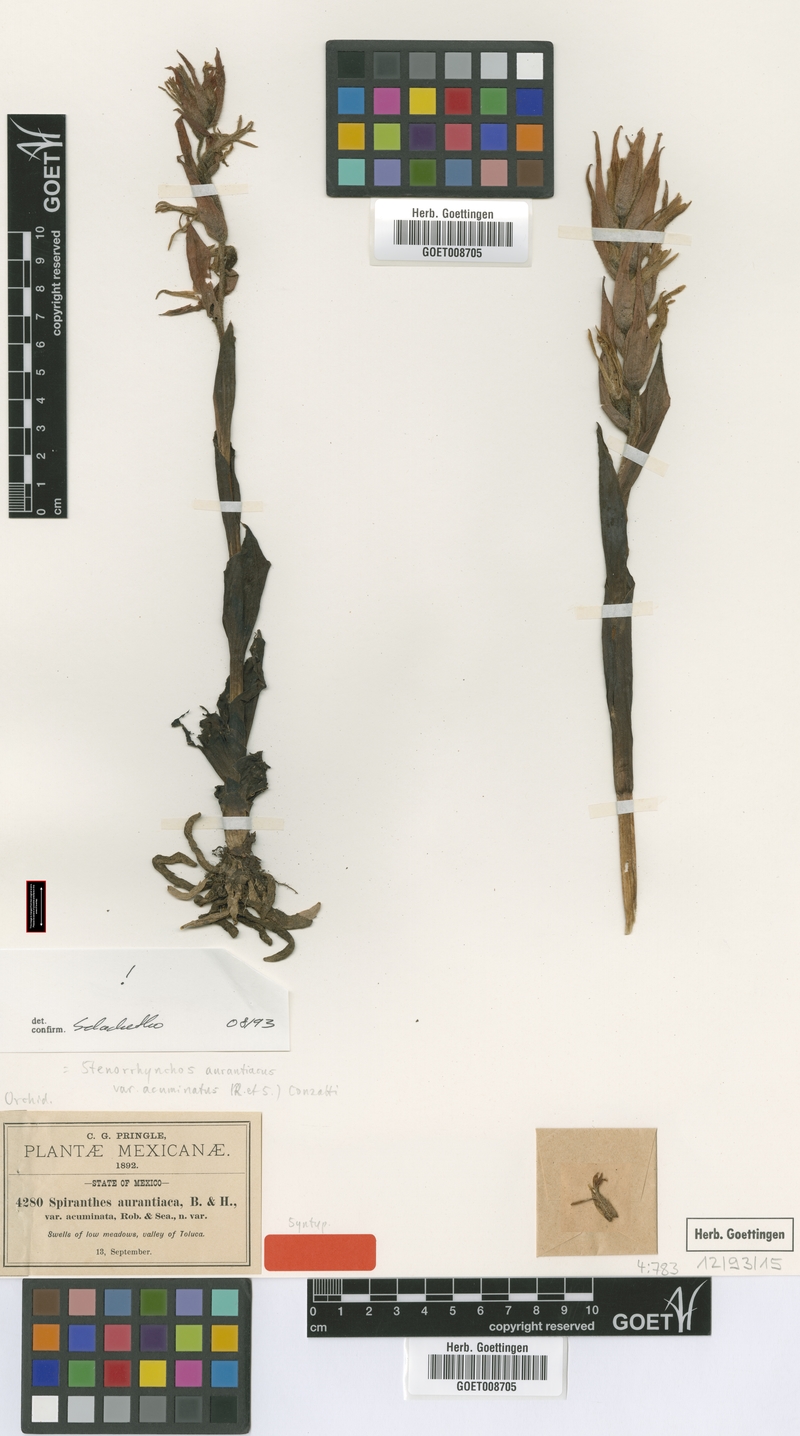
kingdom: Plantae
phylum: Tracheophyta
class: Liliopsida
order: Asparagales
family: Orchidaceae
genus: Dichromanthus
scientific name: Dichromanthus aurantiacus
